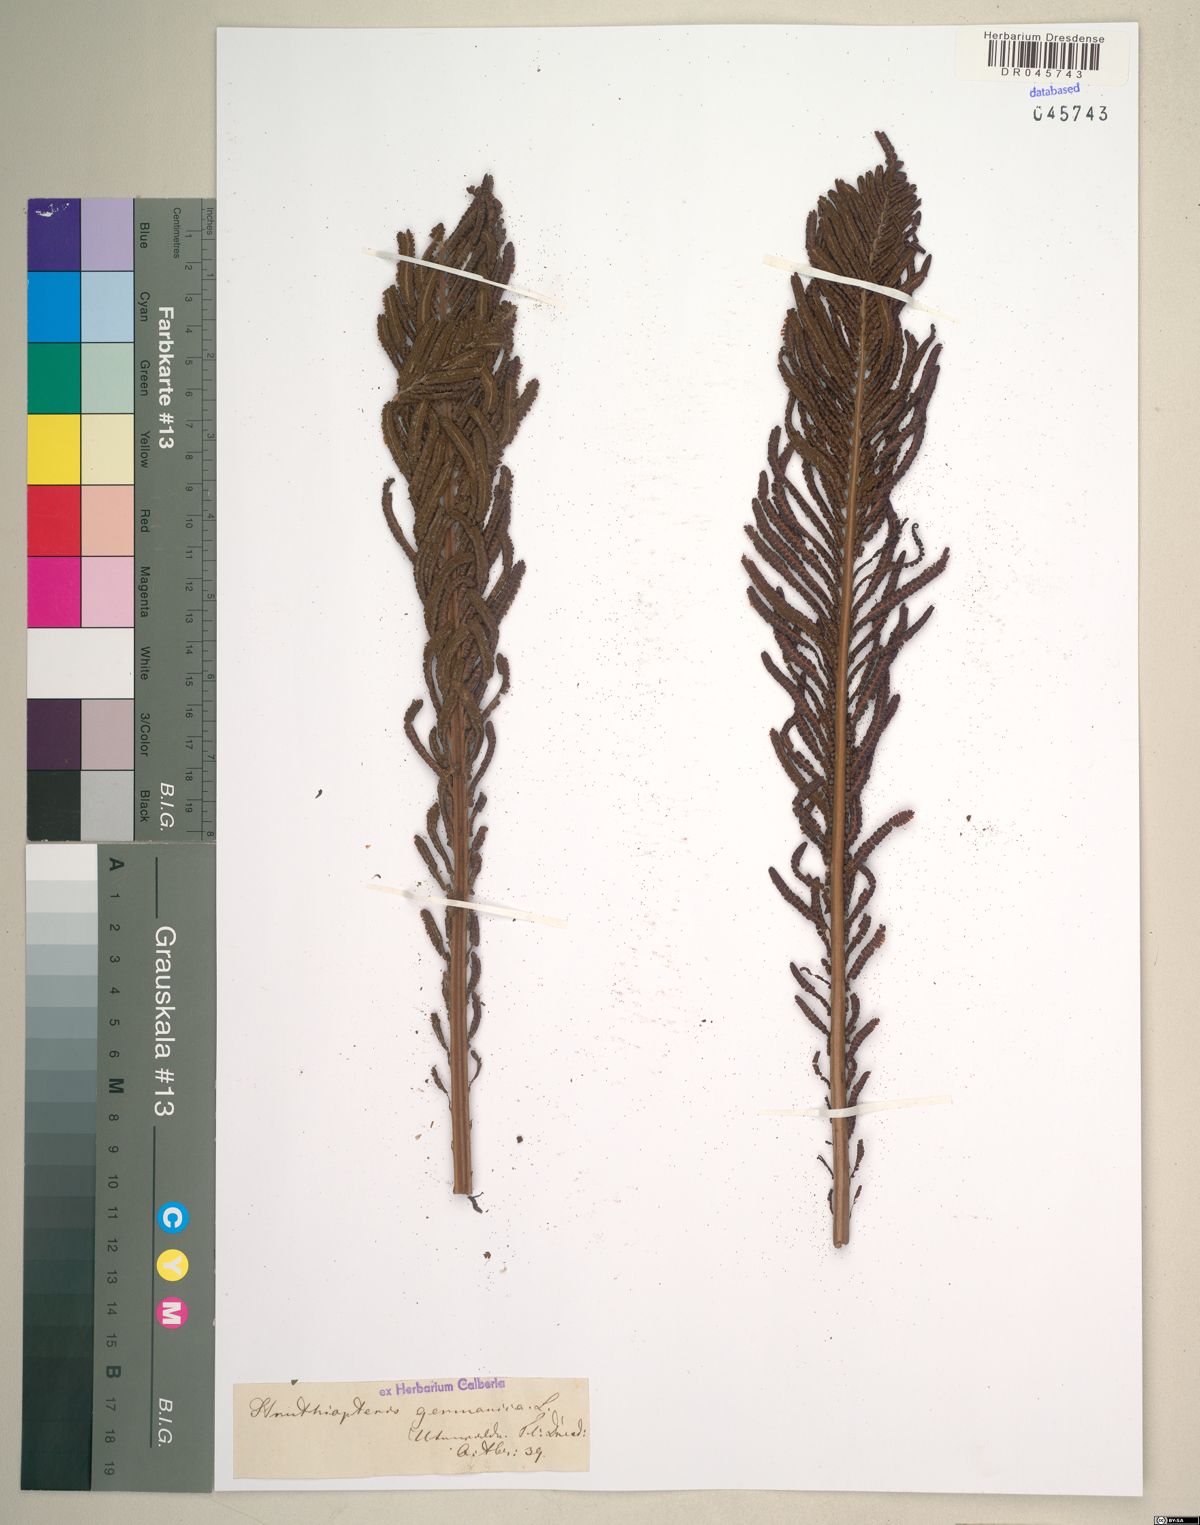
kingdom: Plantae
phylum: Tracheophyta
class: Polypodiopsida
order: Polypodiales
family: Onocleaceae
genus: Matteuccia
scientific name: Matteuccia struthiopteris
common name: Ostrich fern
